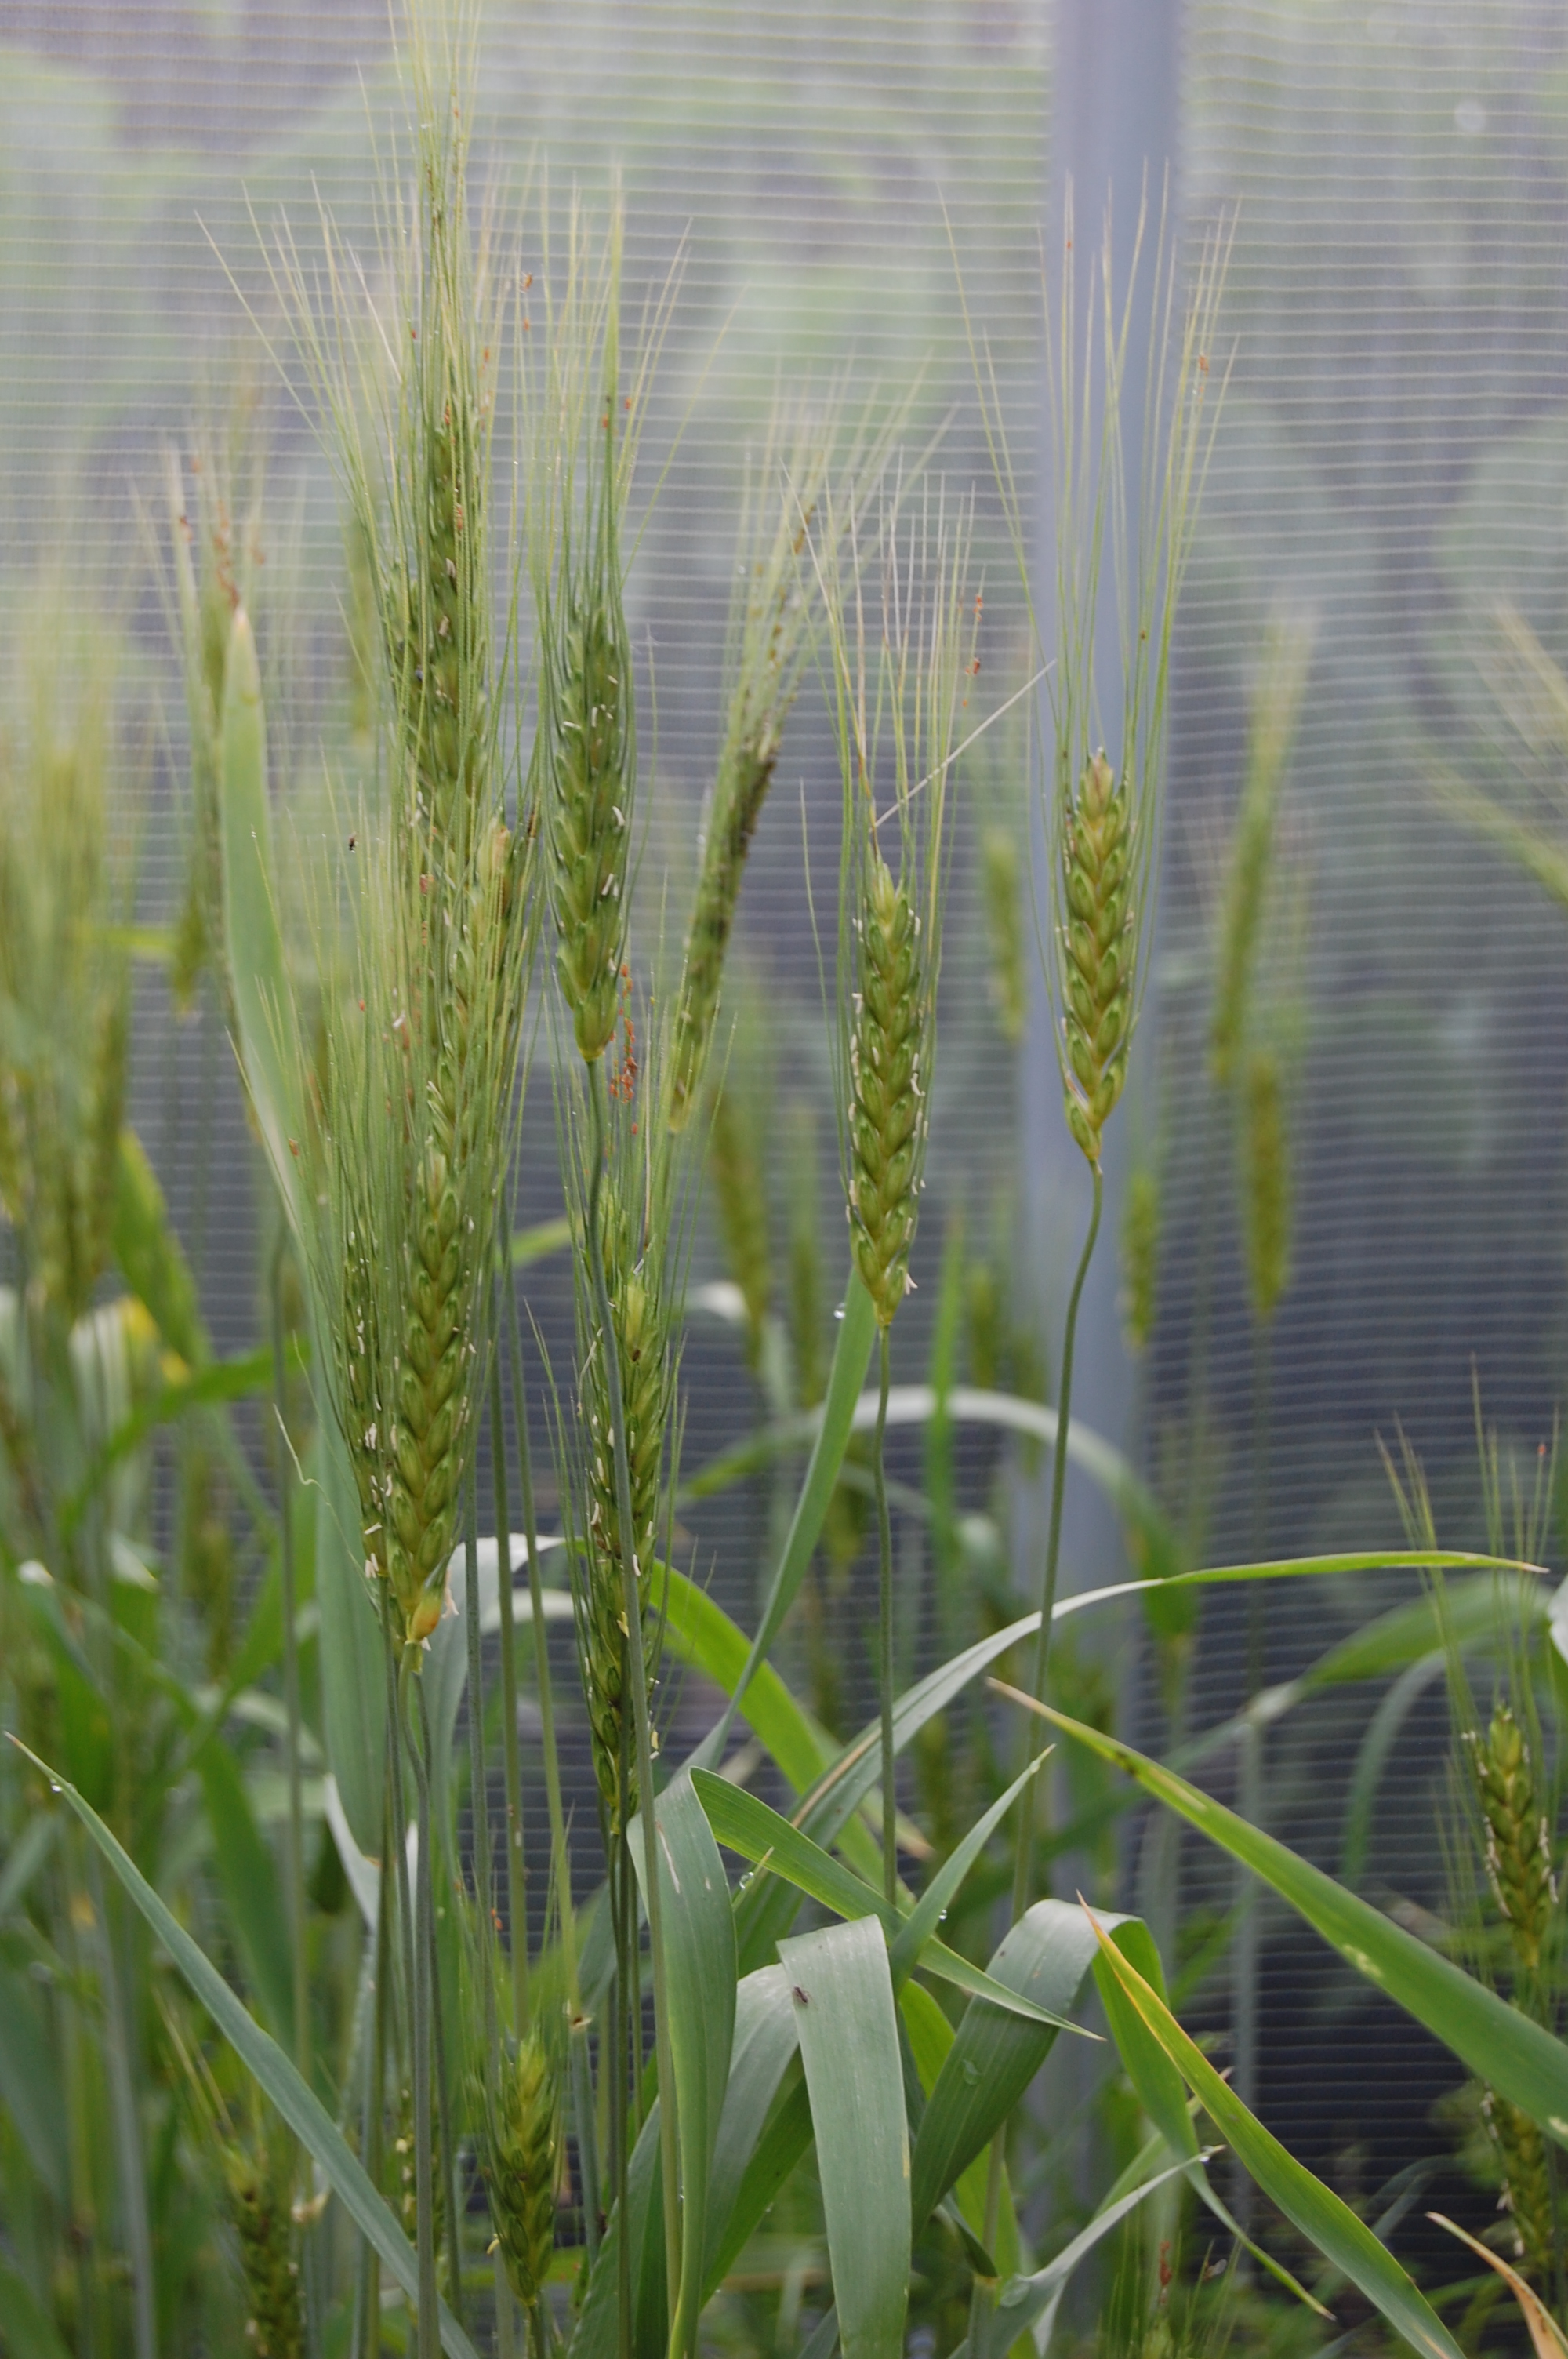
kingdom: Plantae
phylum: Tracheophyta
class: Liliopsida
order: Poales
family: Poaceae
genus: Triticum
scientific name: Triticum aestivum
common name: Common wheat
